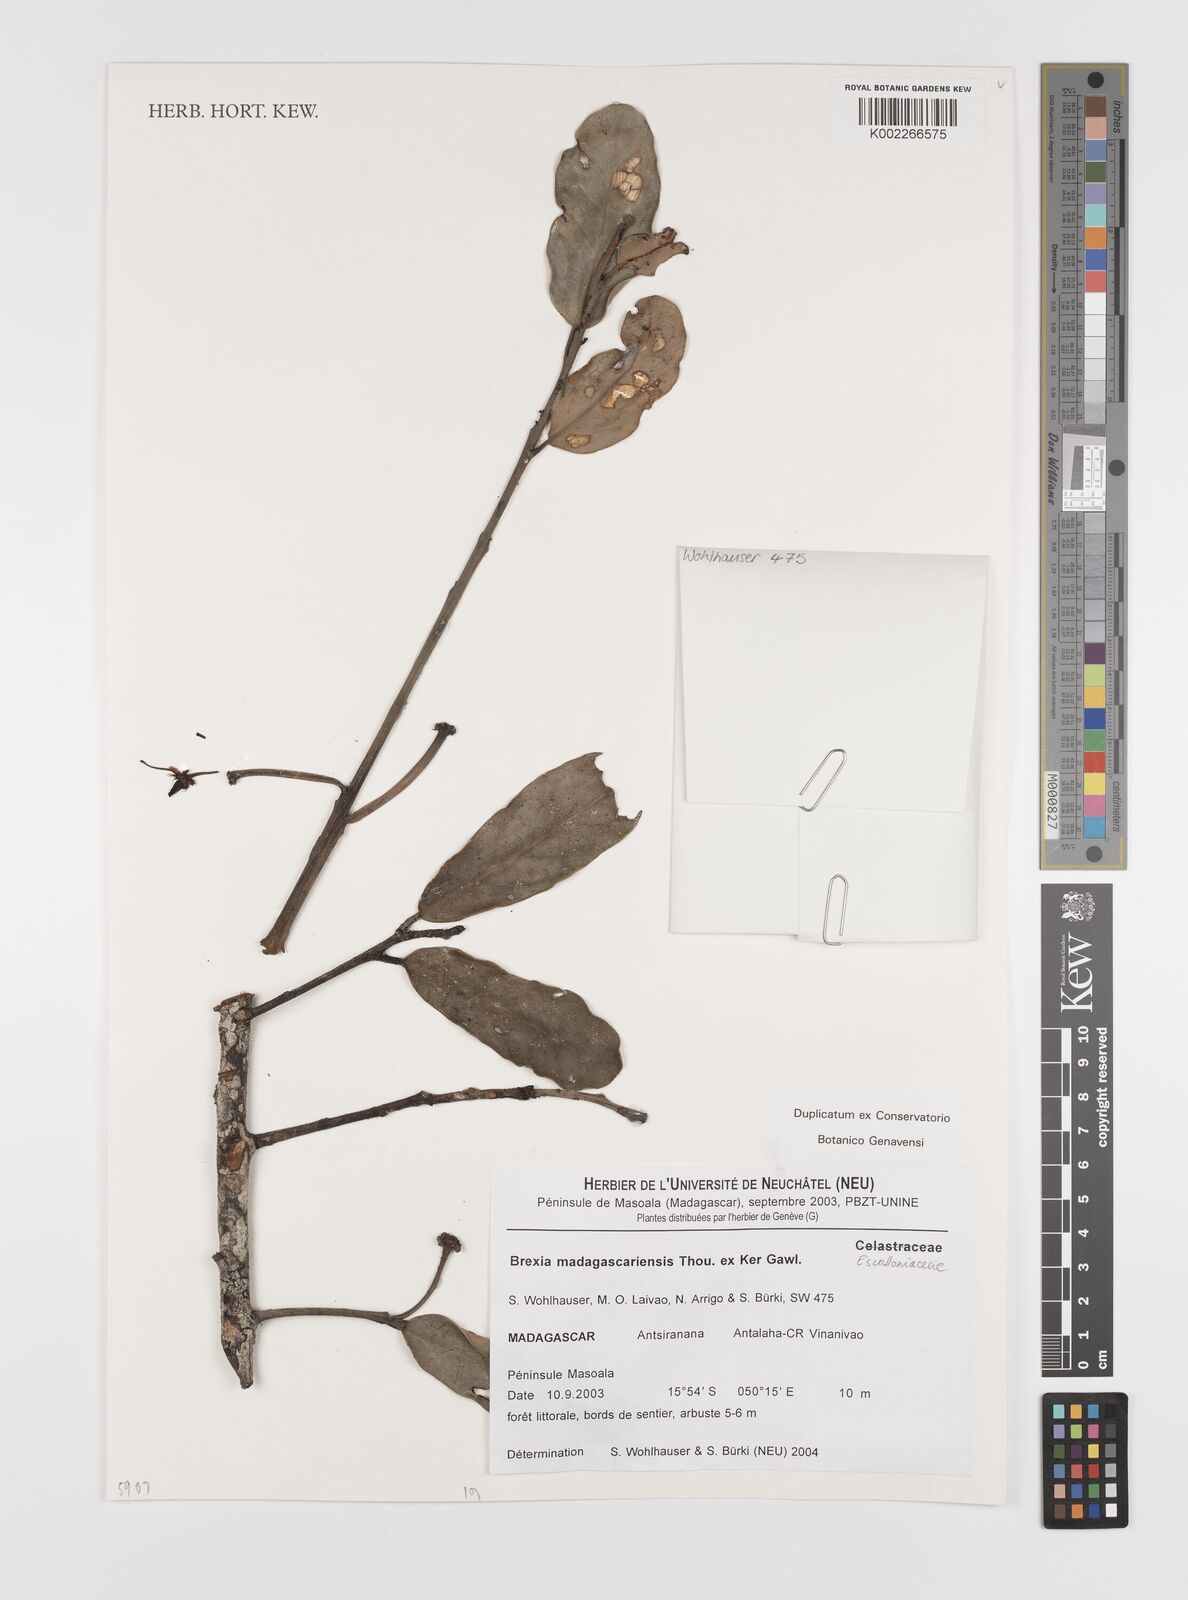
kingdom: Plantae
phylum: Tracheophyta
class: Magnoliopsida
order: Celastrales
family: Celastraceae
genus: Brexia
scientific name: Brexia madagascariensis
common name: Brexia
